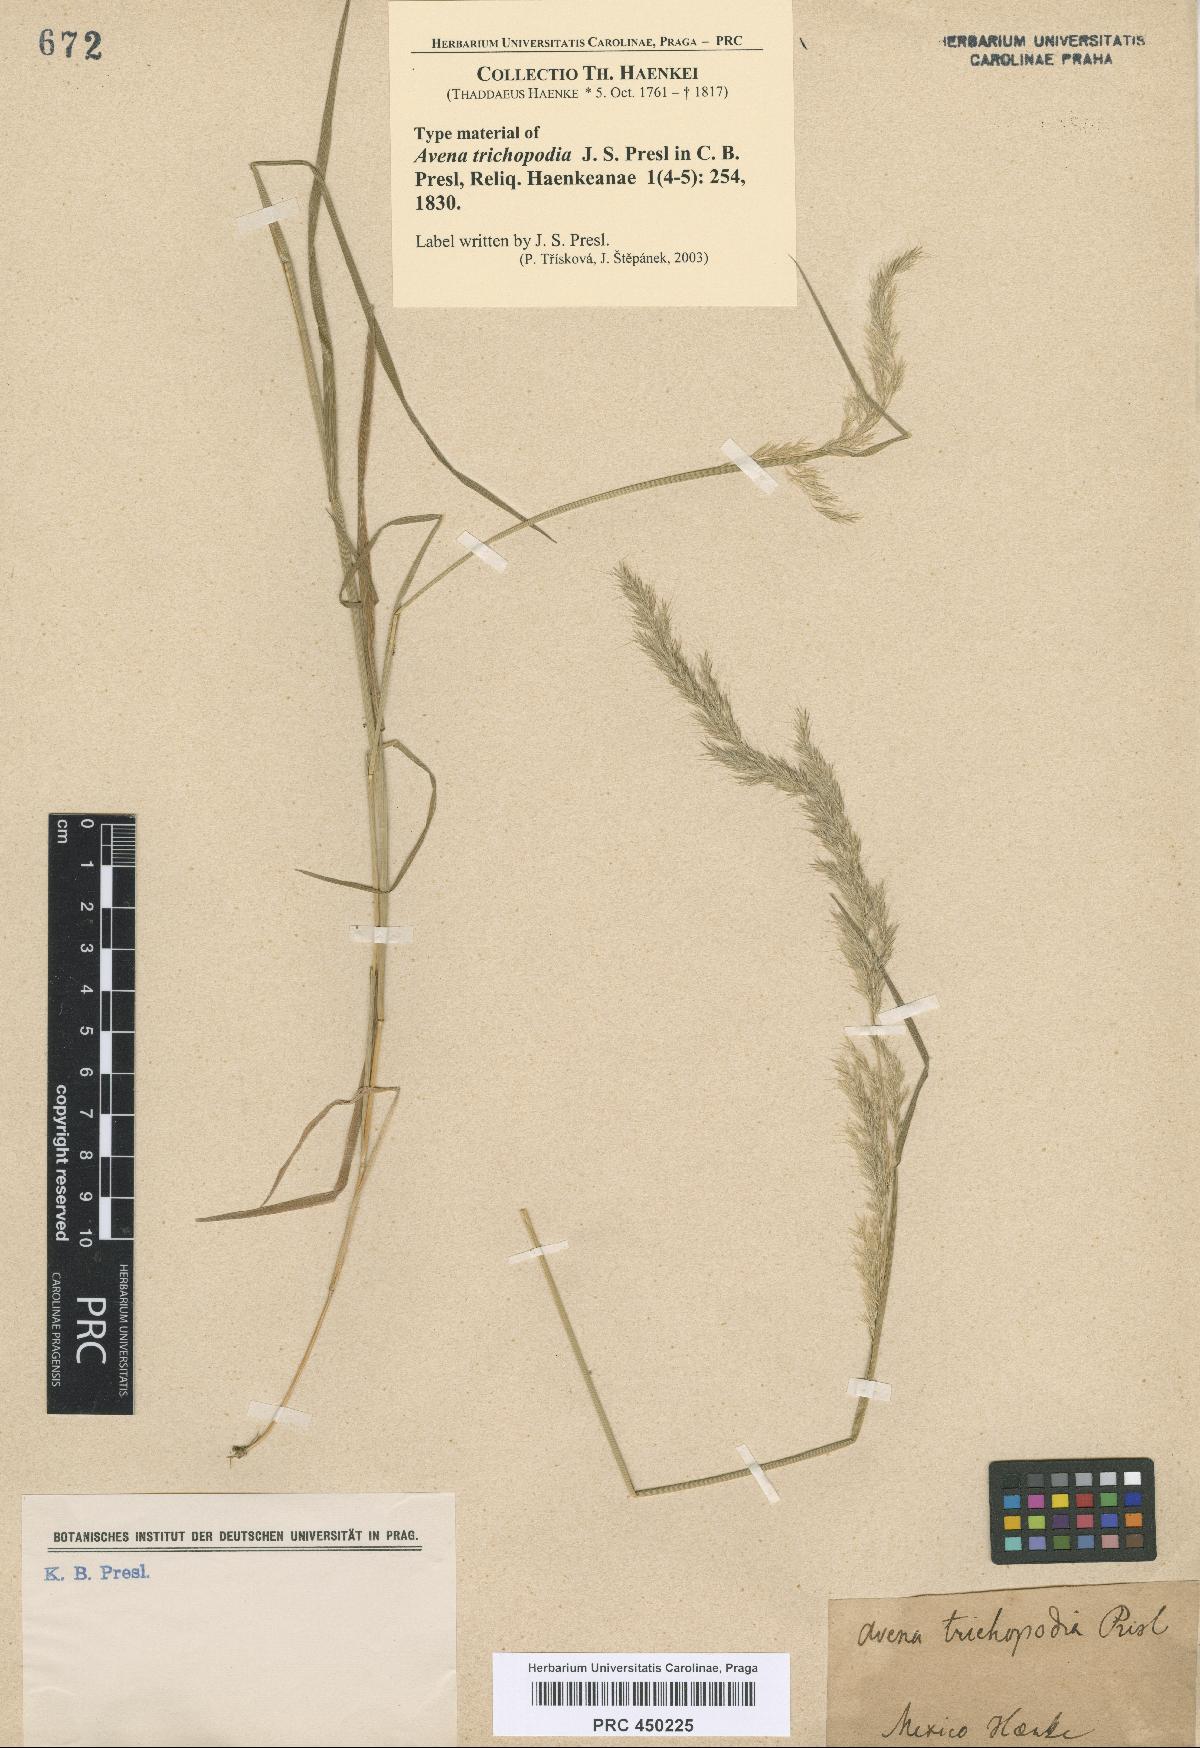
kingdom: Plantae
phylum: Tracheophyta
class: Liliopsida
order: Poales
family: Poaceae
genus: Peyritschia
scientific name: Peyritschia deyeuxioides
